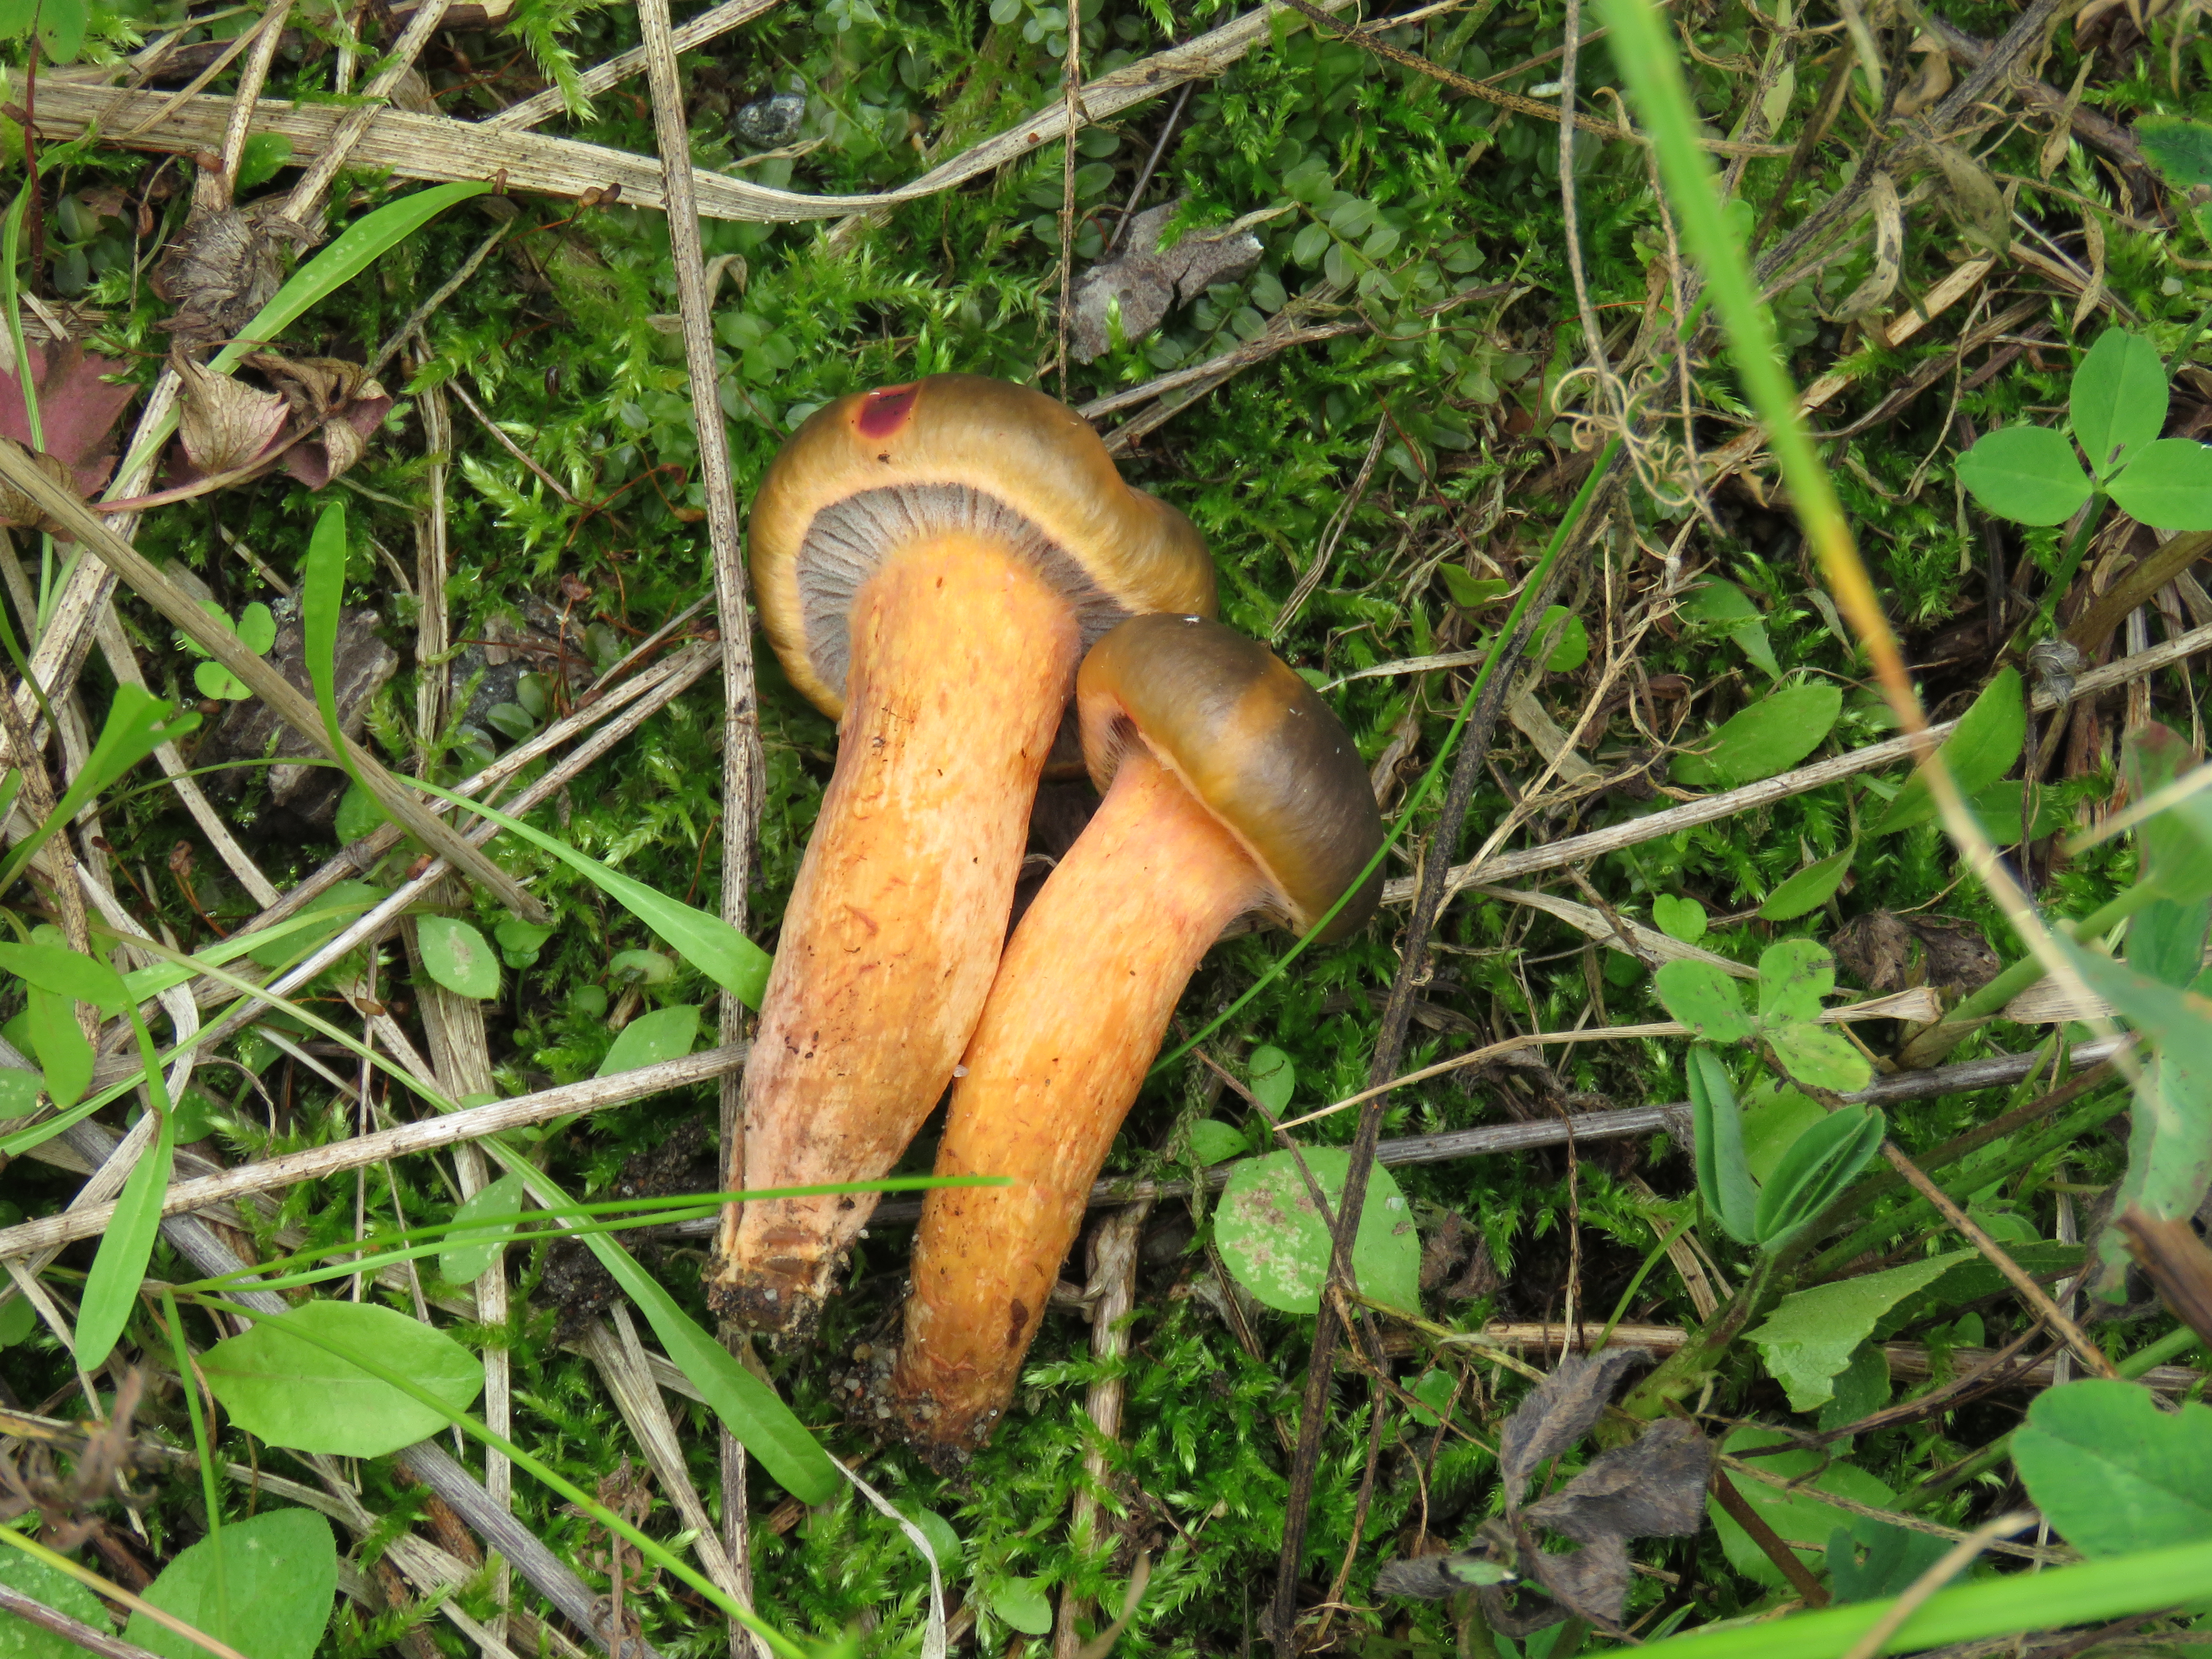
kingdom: Fungi
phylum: Basidiomycota
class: Agaricomycetes
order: Boletales
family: Gomphidiaceae
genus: Chroogomphus
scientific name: Chroogomphus rutilus
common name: Copper spike
